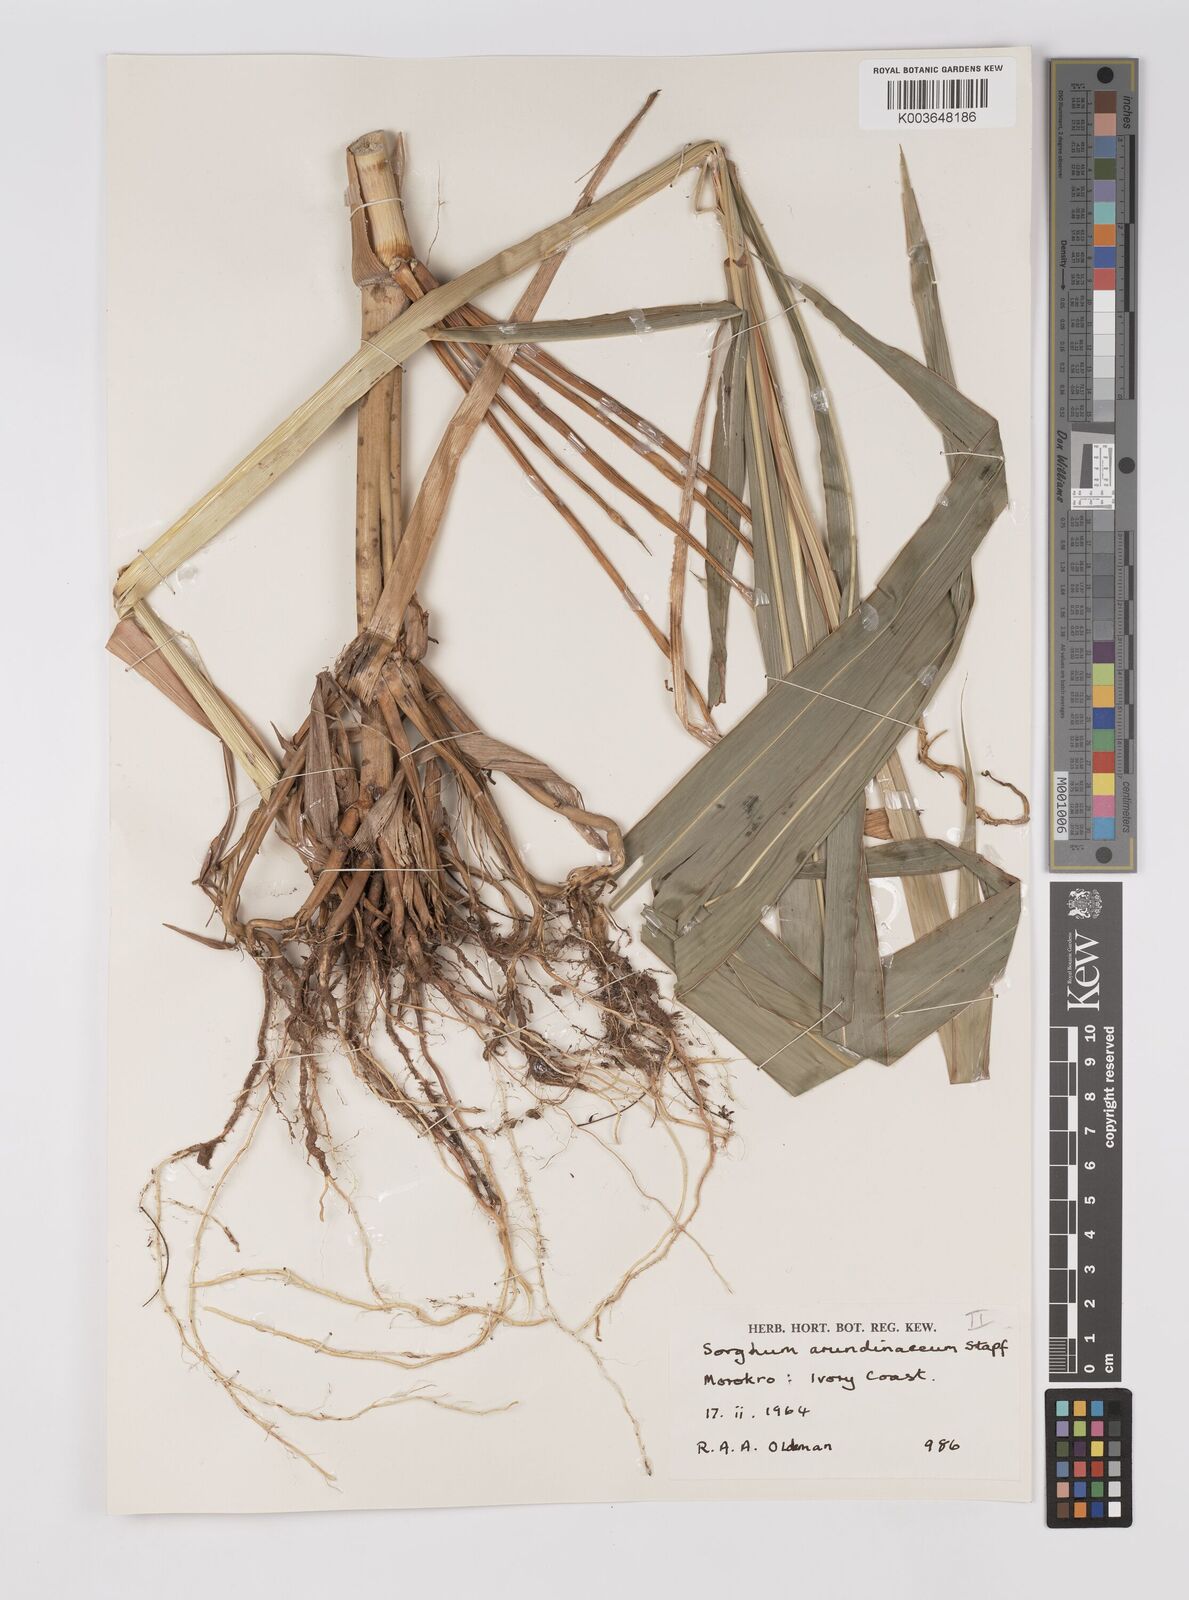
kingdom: Plantae
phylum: Tracheophyta
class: Liliopsida
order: Poales
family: Poaceae
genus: Sorghum
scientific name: Sorghum arundinaceum
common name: Sorghum
